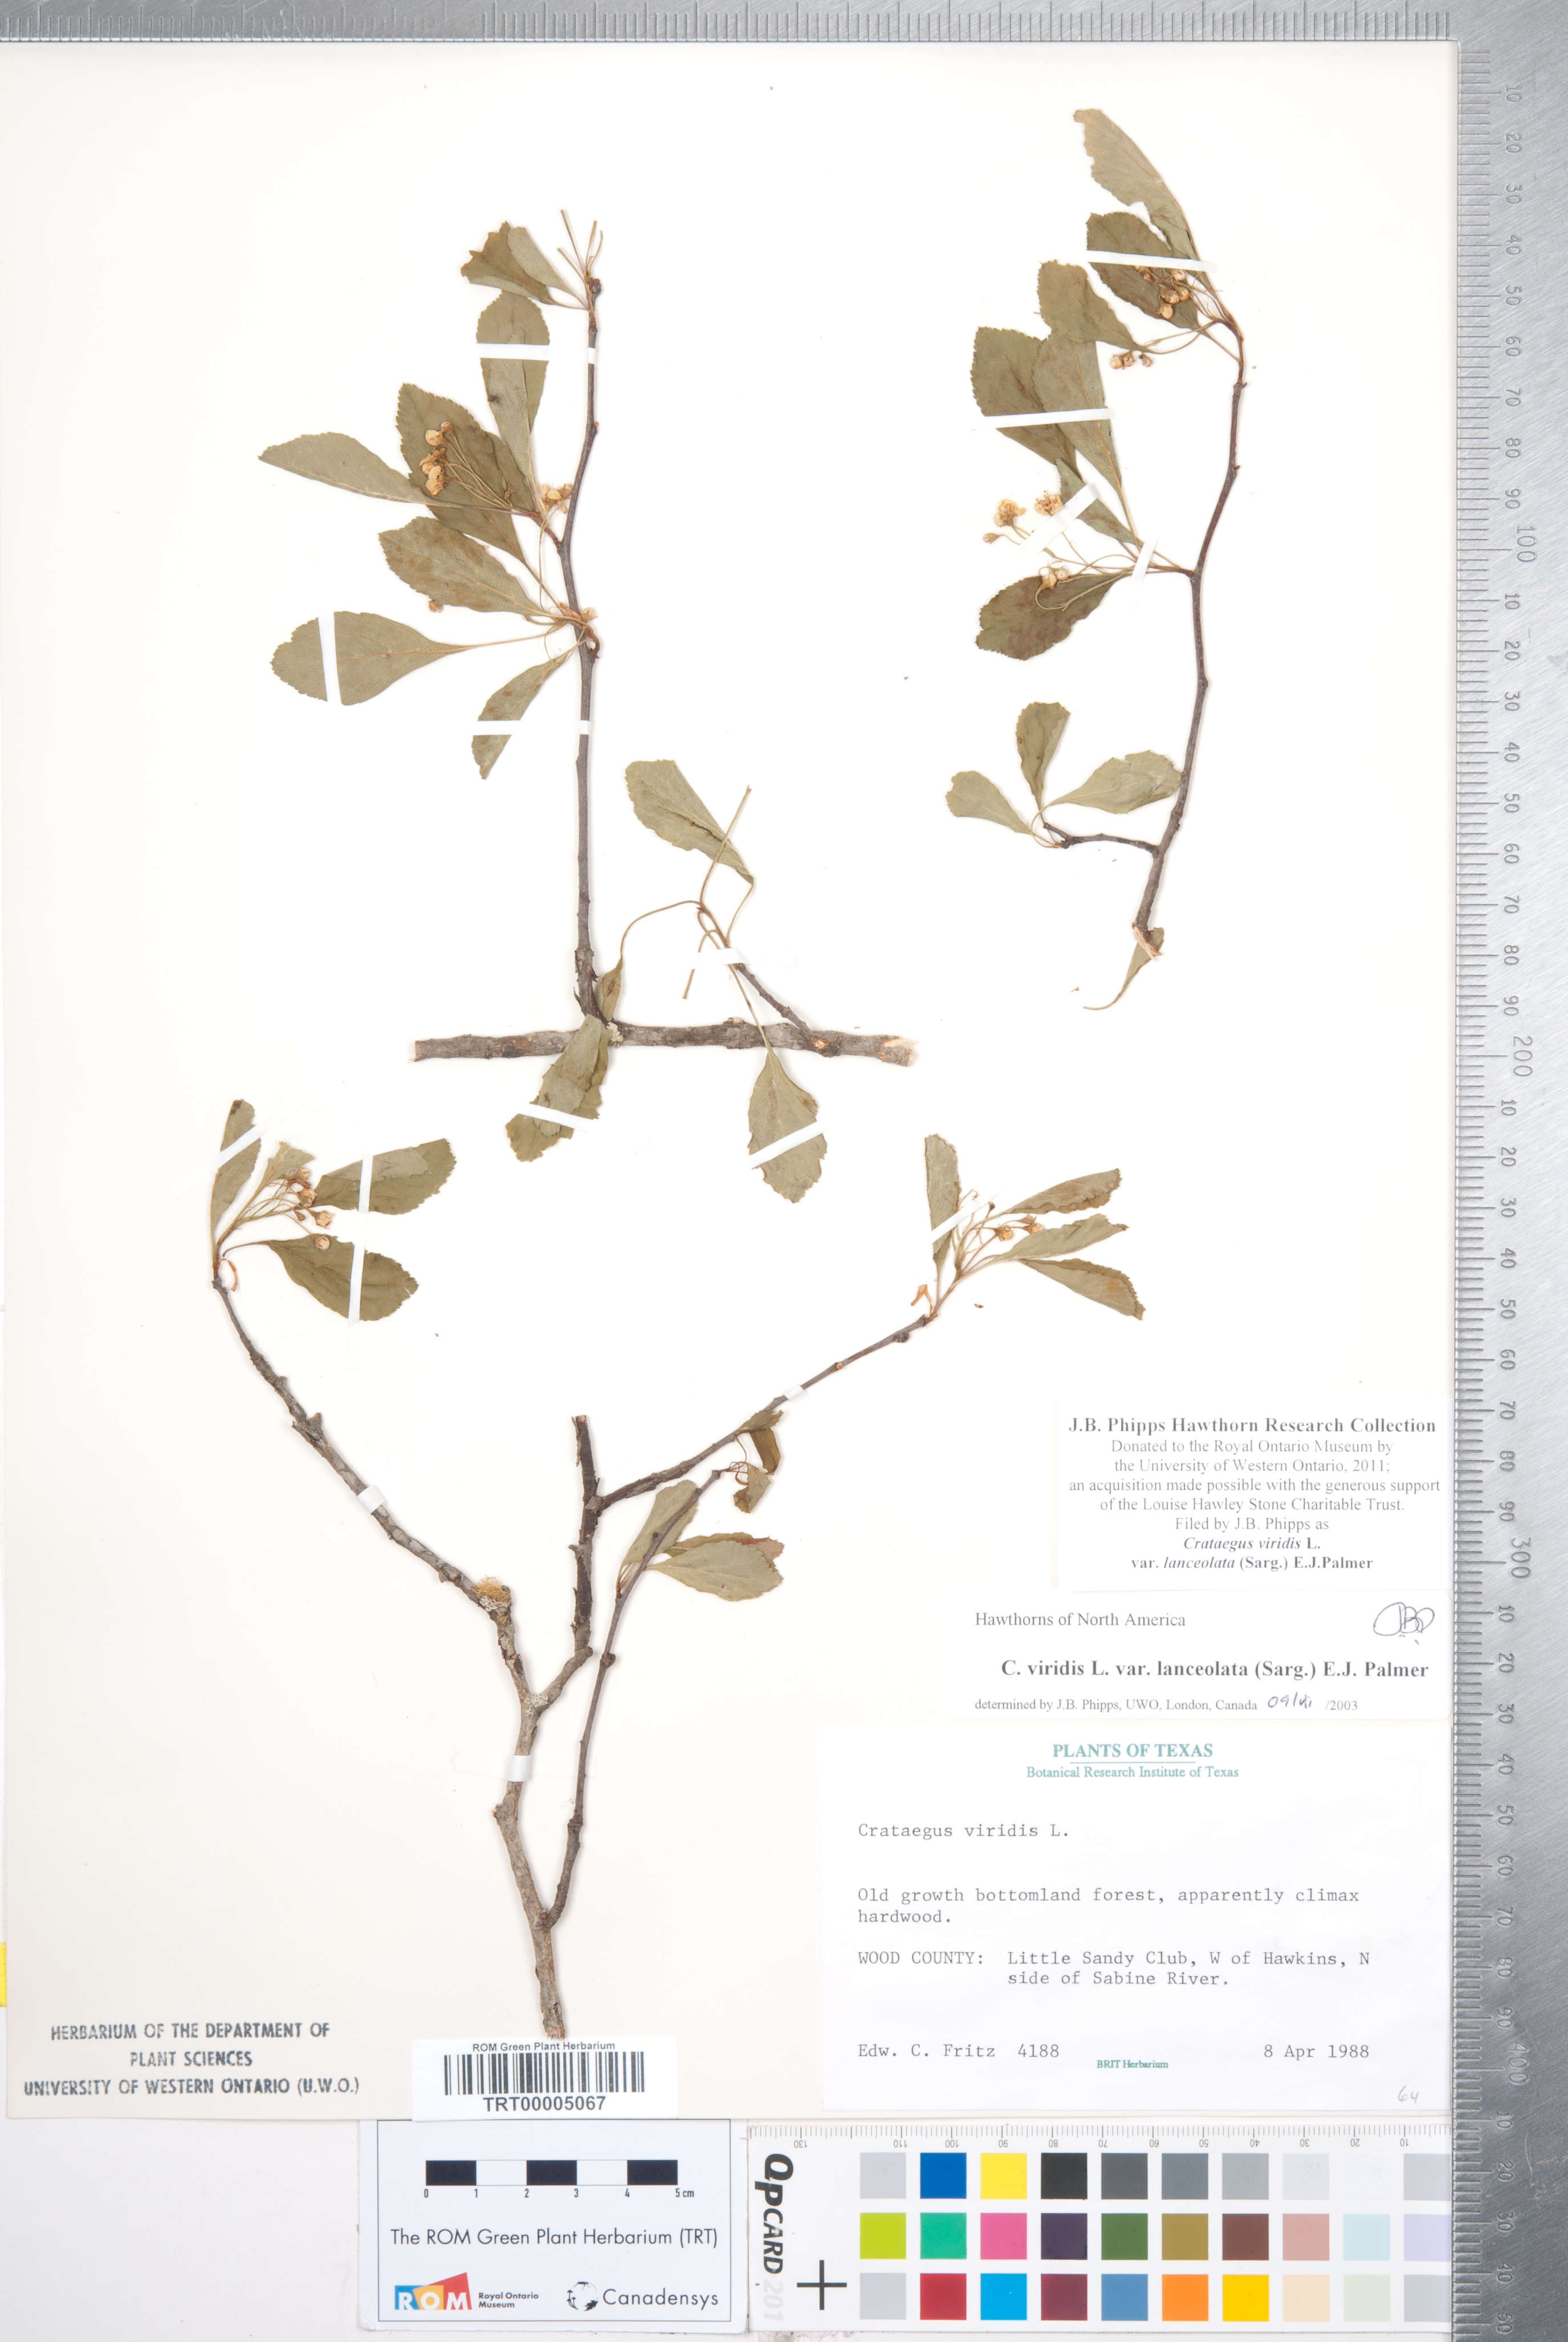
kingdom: Plantae
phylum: Tracheophyta
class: Magnoliopsida
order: Rosales
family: Rosaceae
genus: Crataegus
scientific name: Crataegus viridis
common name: Southernthorn
